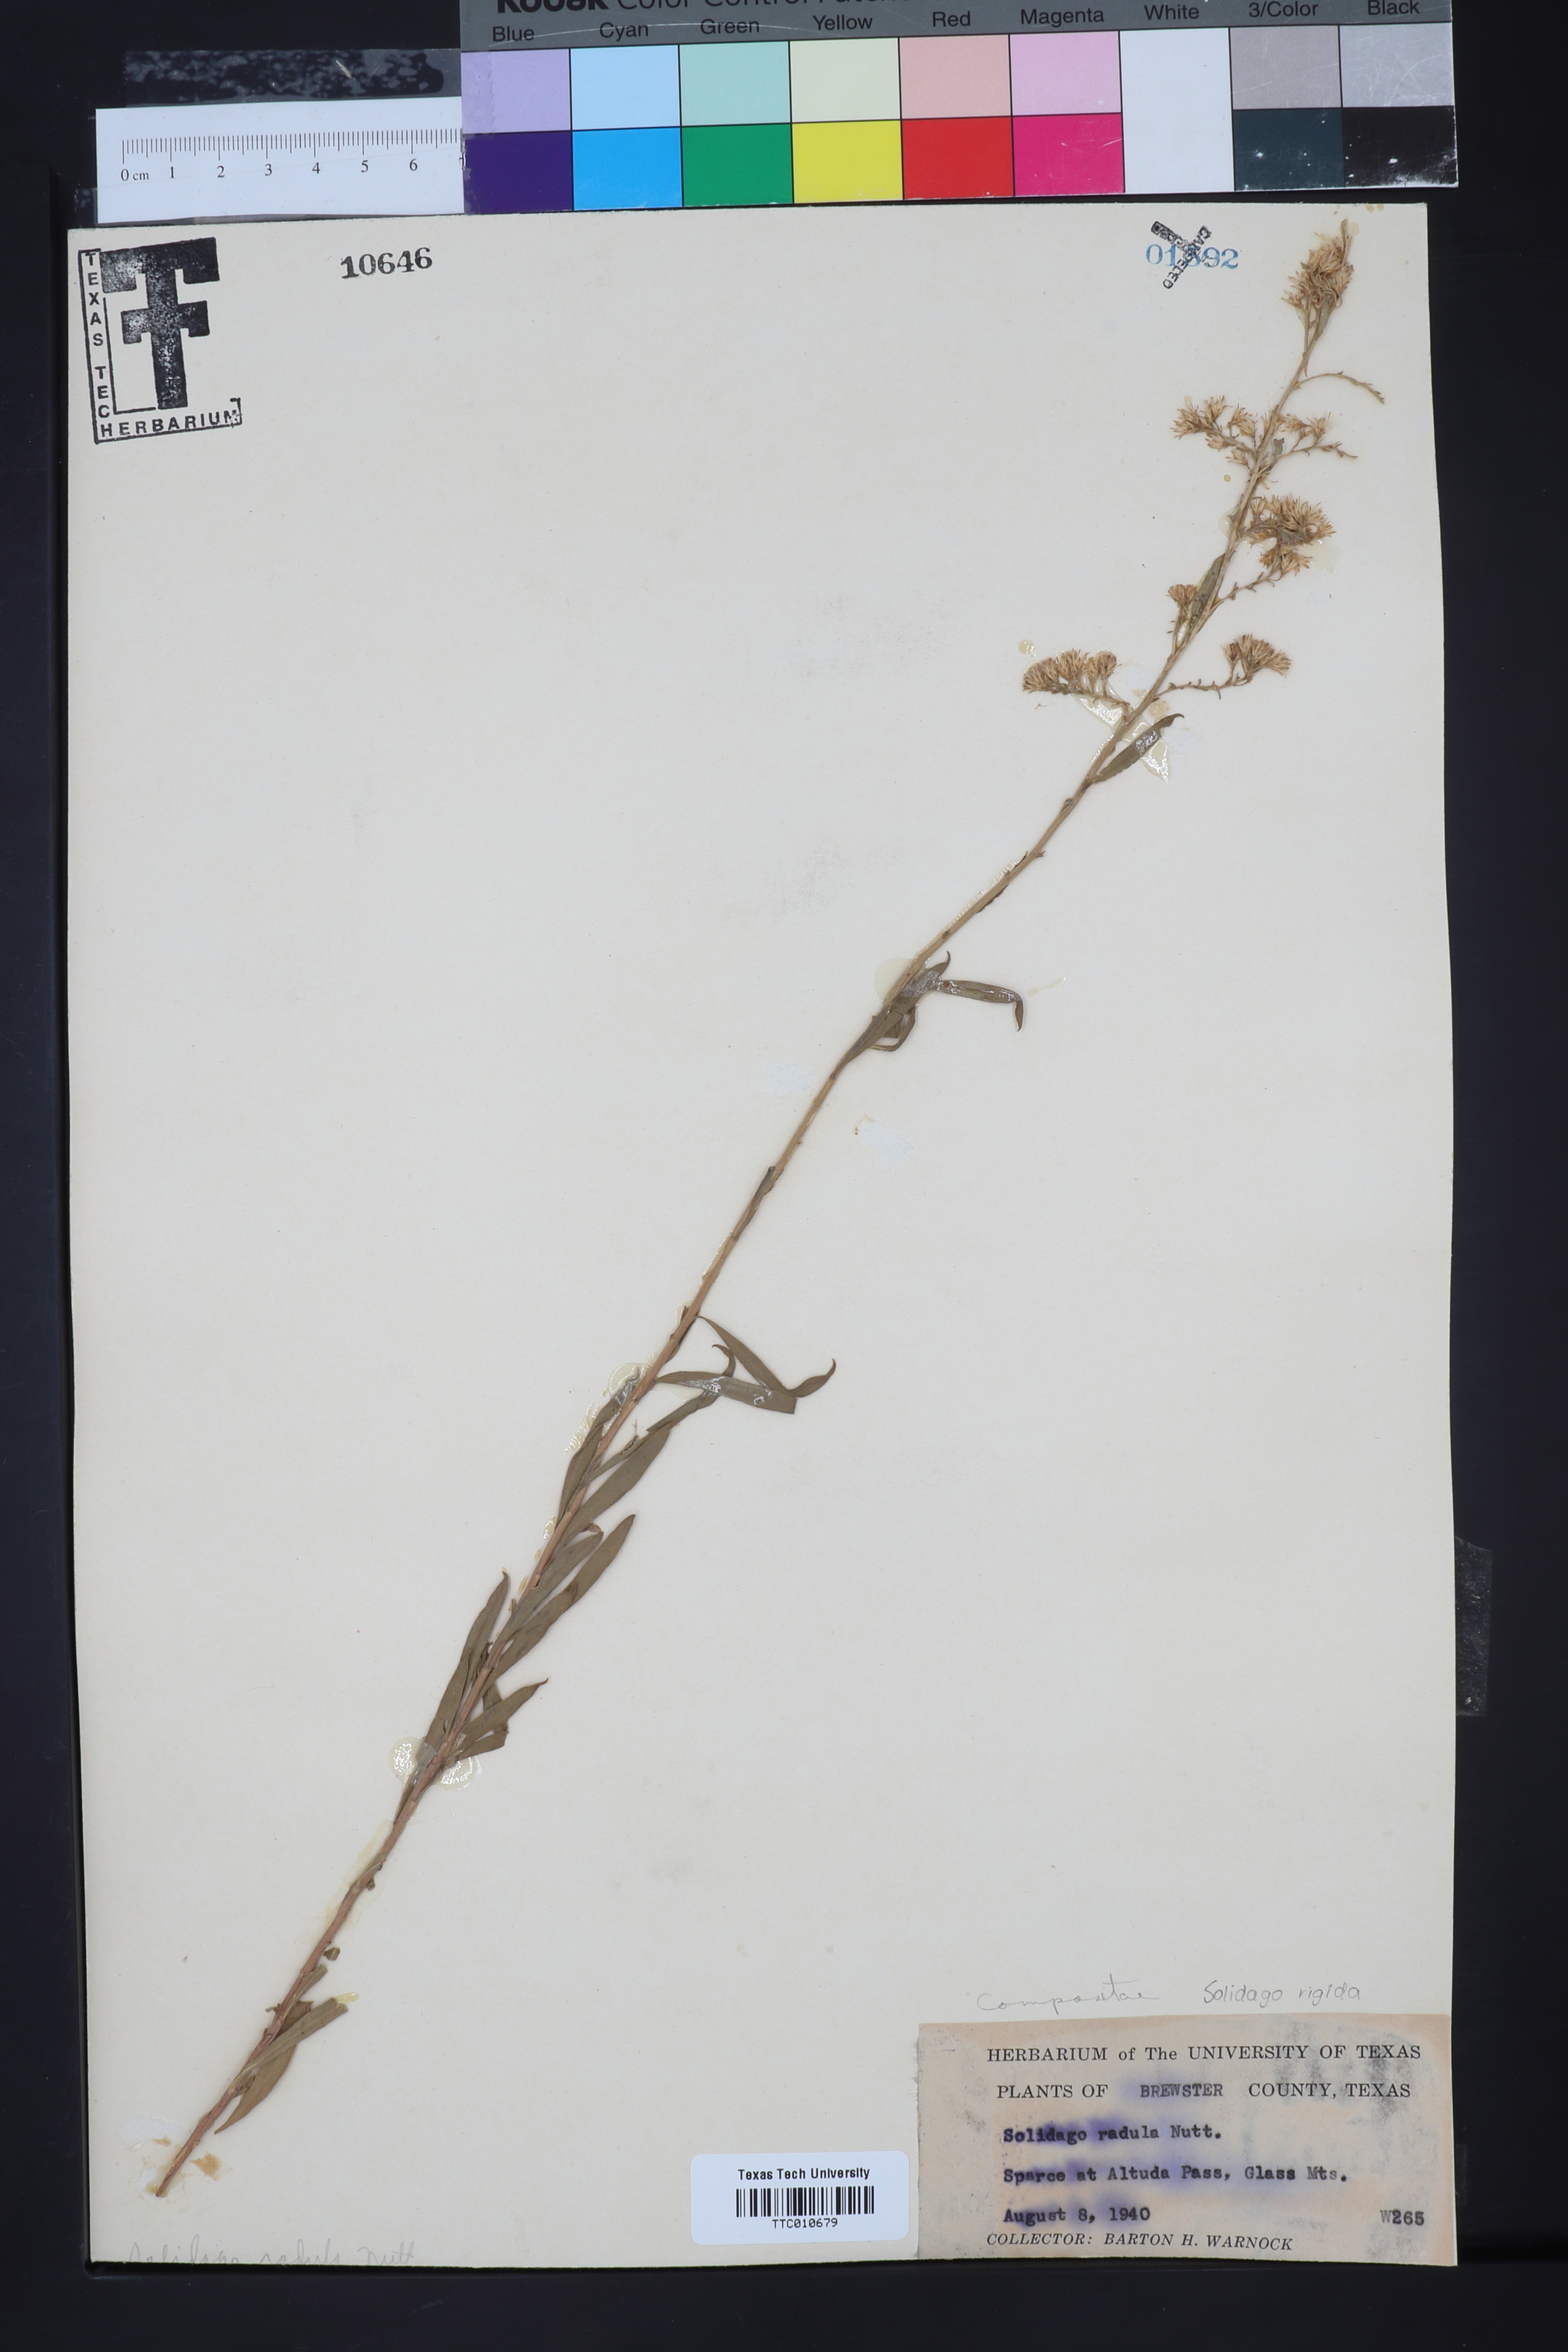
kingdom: Plantae
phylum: Tracheophyta
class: Magnoliopsida
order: Asterales
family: Asteraceae
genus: Solidago
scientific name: Solidago radula
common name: Western rough goldenrod
